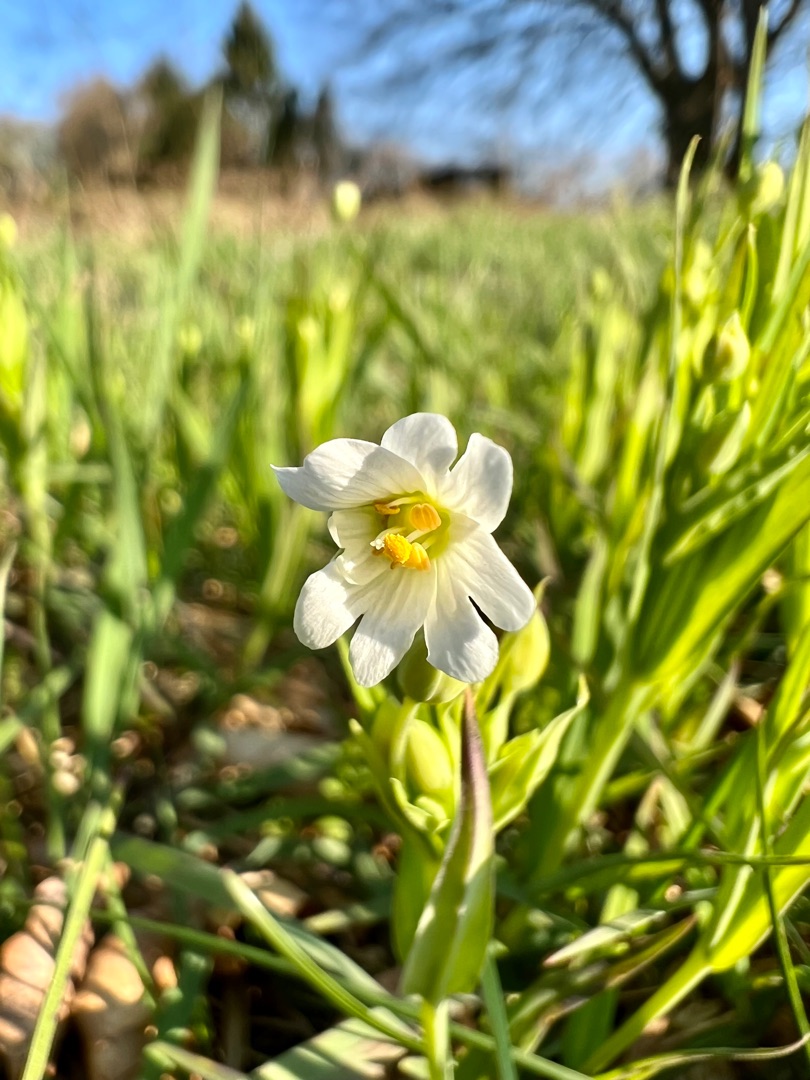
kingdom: Plantae
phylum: Tracheophyta
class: Magnoliopsida
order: Caryophyllales
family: Caryophyllaceae
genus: Rabelera
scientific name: Rabelera holostea
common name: Stor fladstjerne
